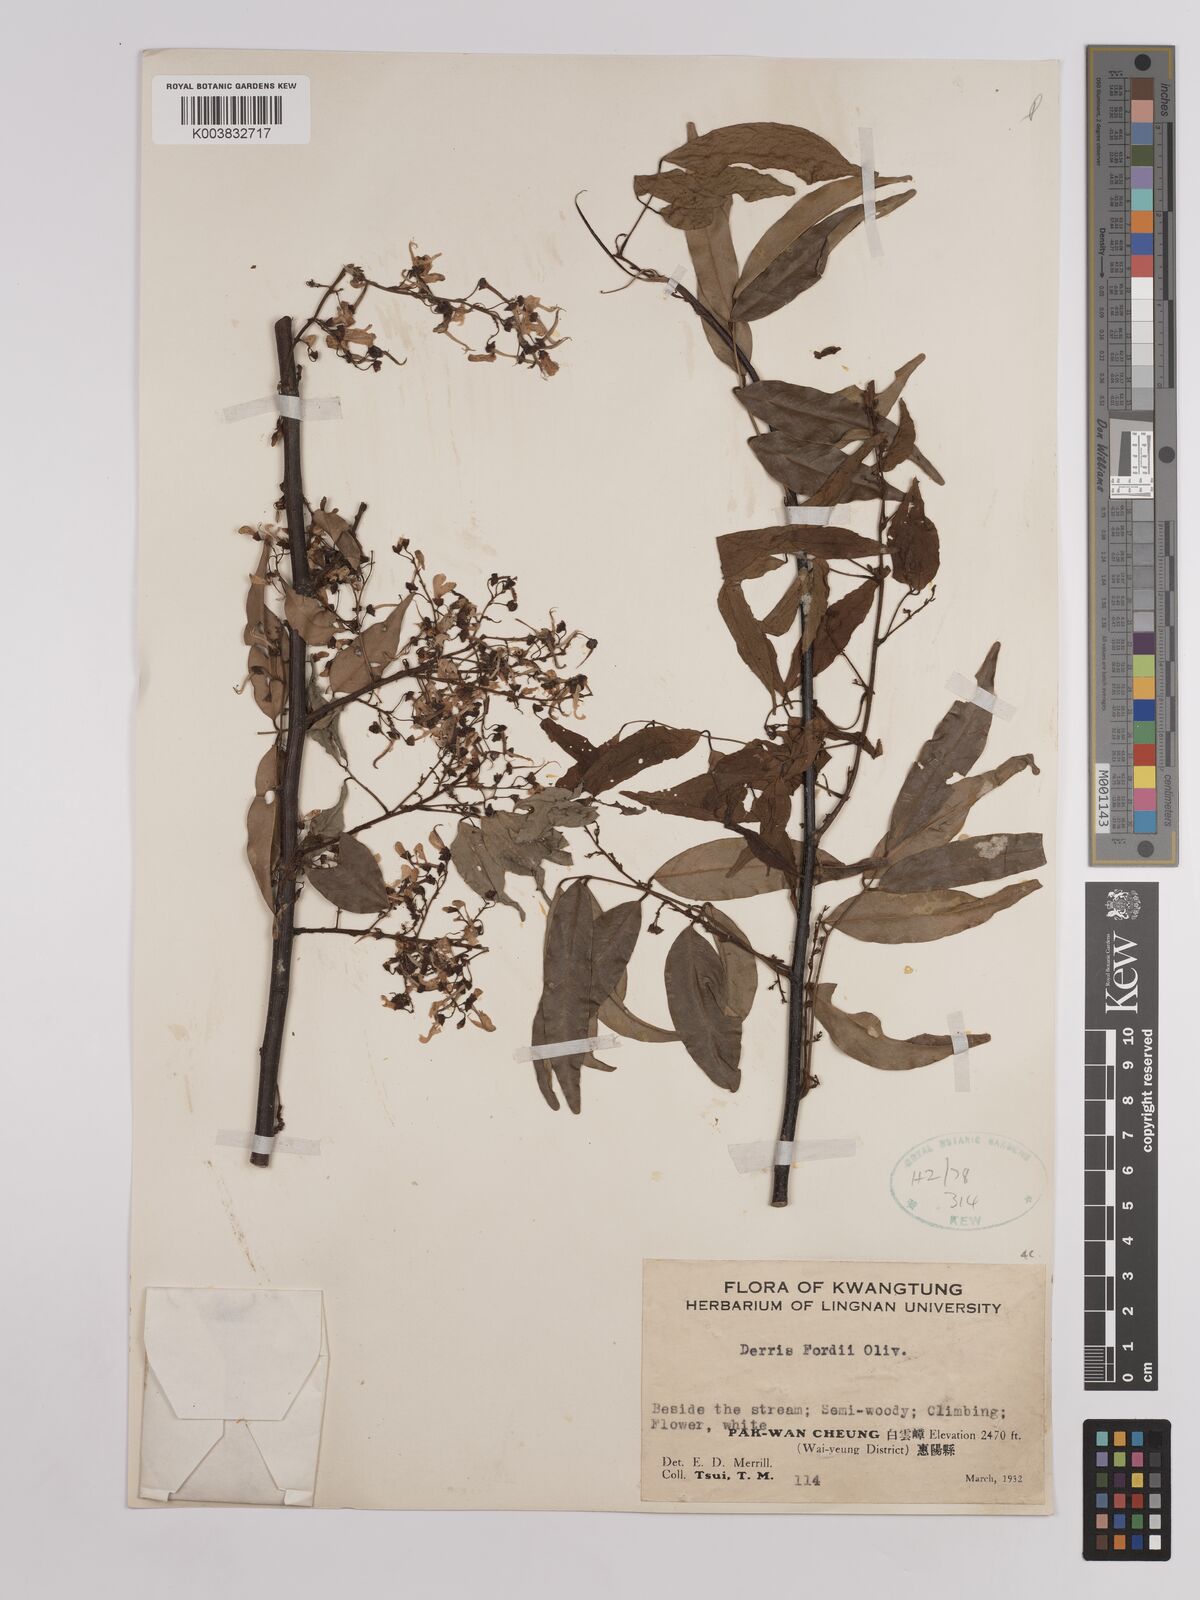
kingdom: Plantae
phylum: Tracheophyta
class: Magnoliopsida
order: Fabales
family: Fabaceae
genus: Derris
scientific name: Derris fordii
